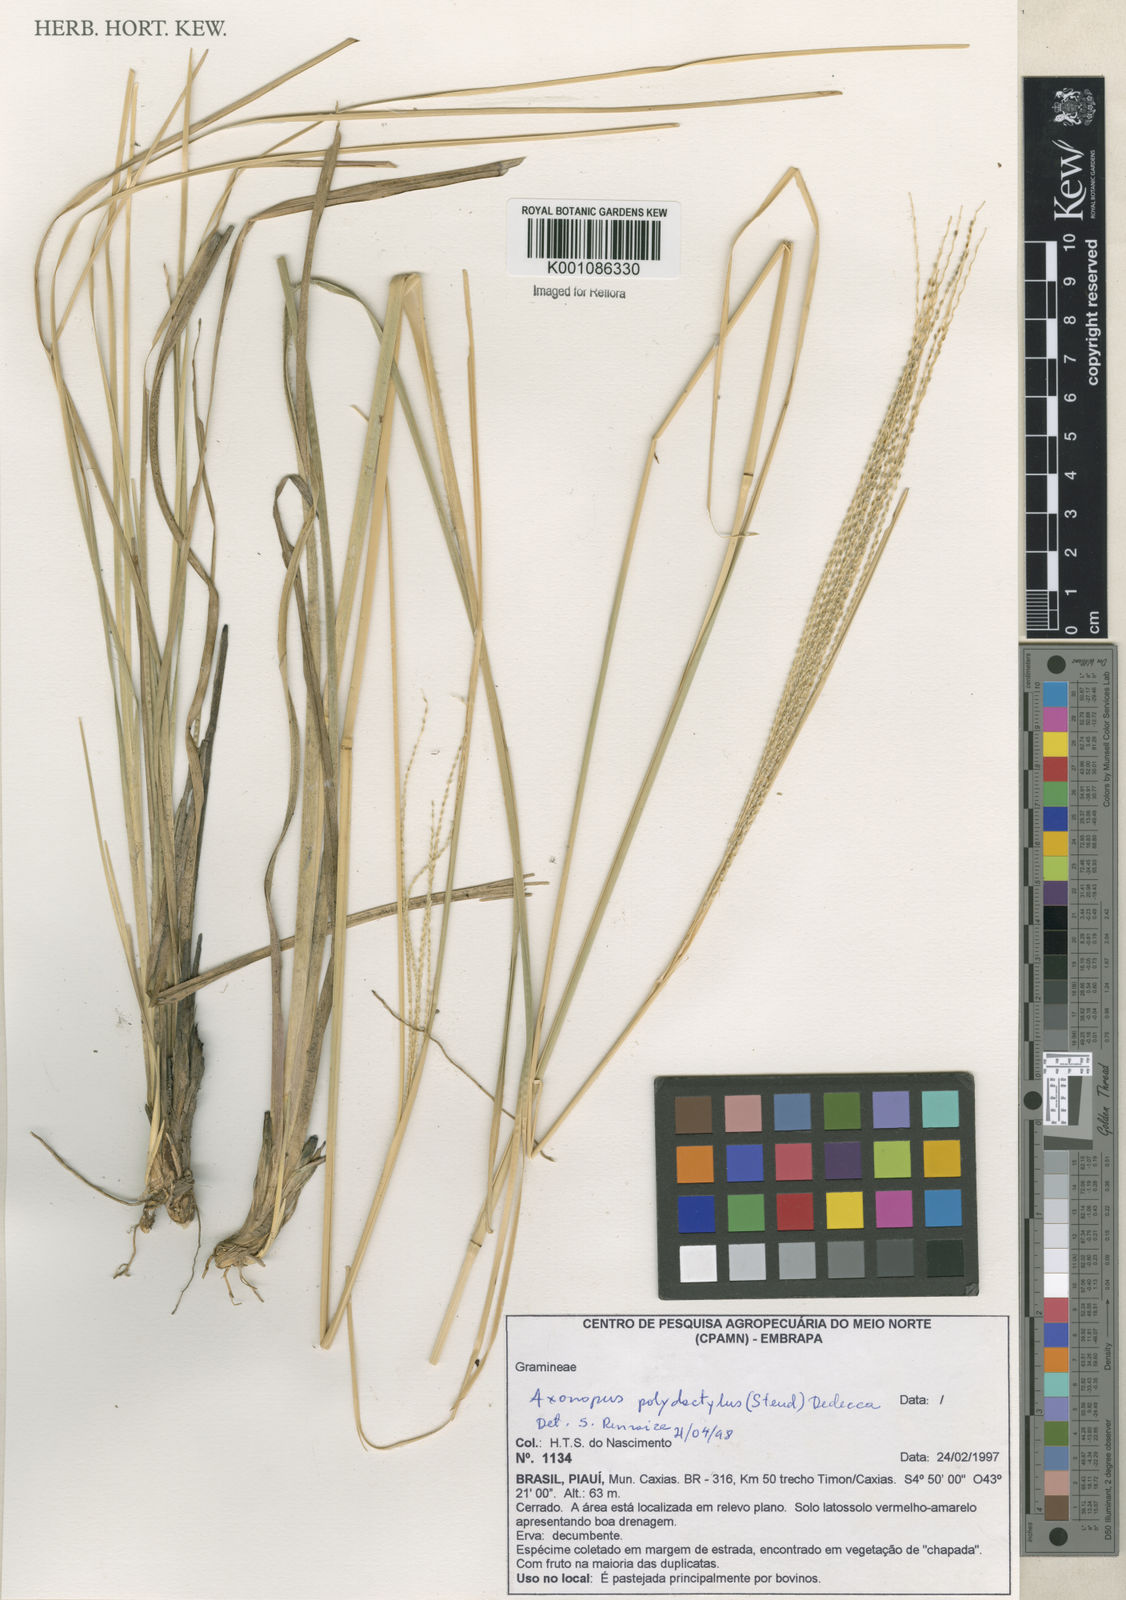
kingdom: Plantae
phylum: Tracheophyta
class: Liliopsida
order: Poales
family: Poaceae
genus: Axonopus
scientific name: Axonopus polydactylus
